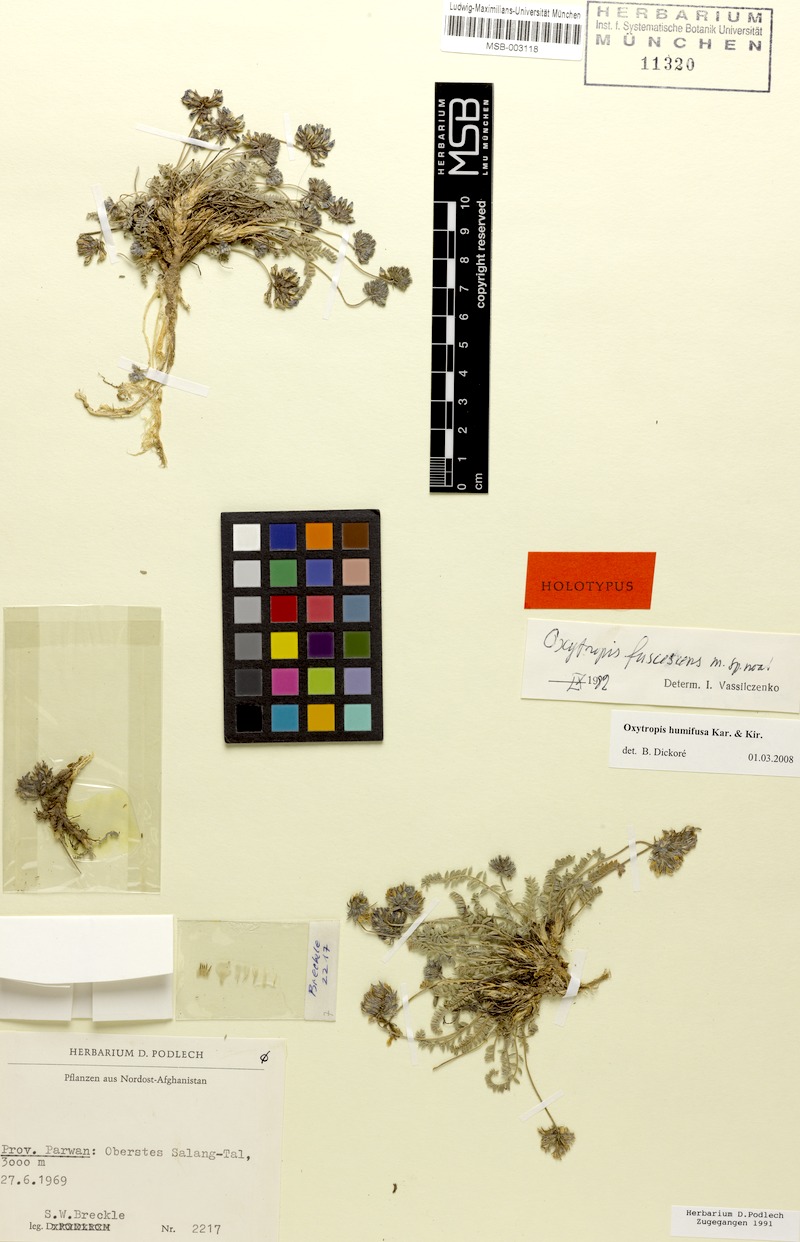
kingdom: Plantae
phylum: Tracheophyta
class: Magnoliopsida
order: Fabales
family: Fabaceae
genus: Oxytropis
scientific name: Oxytropis griffithii
